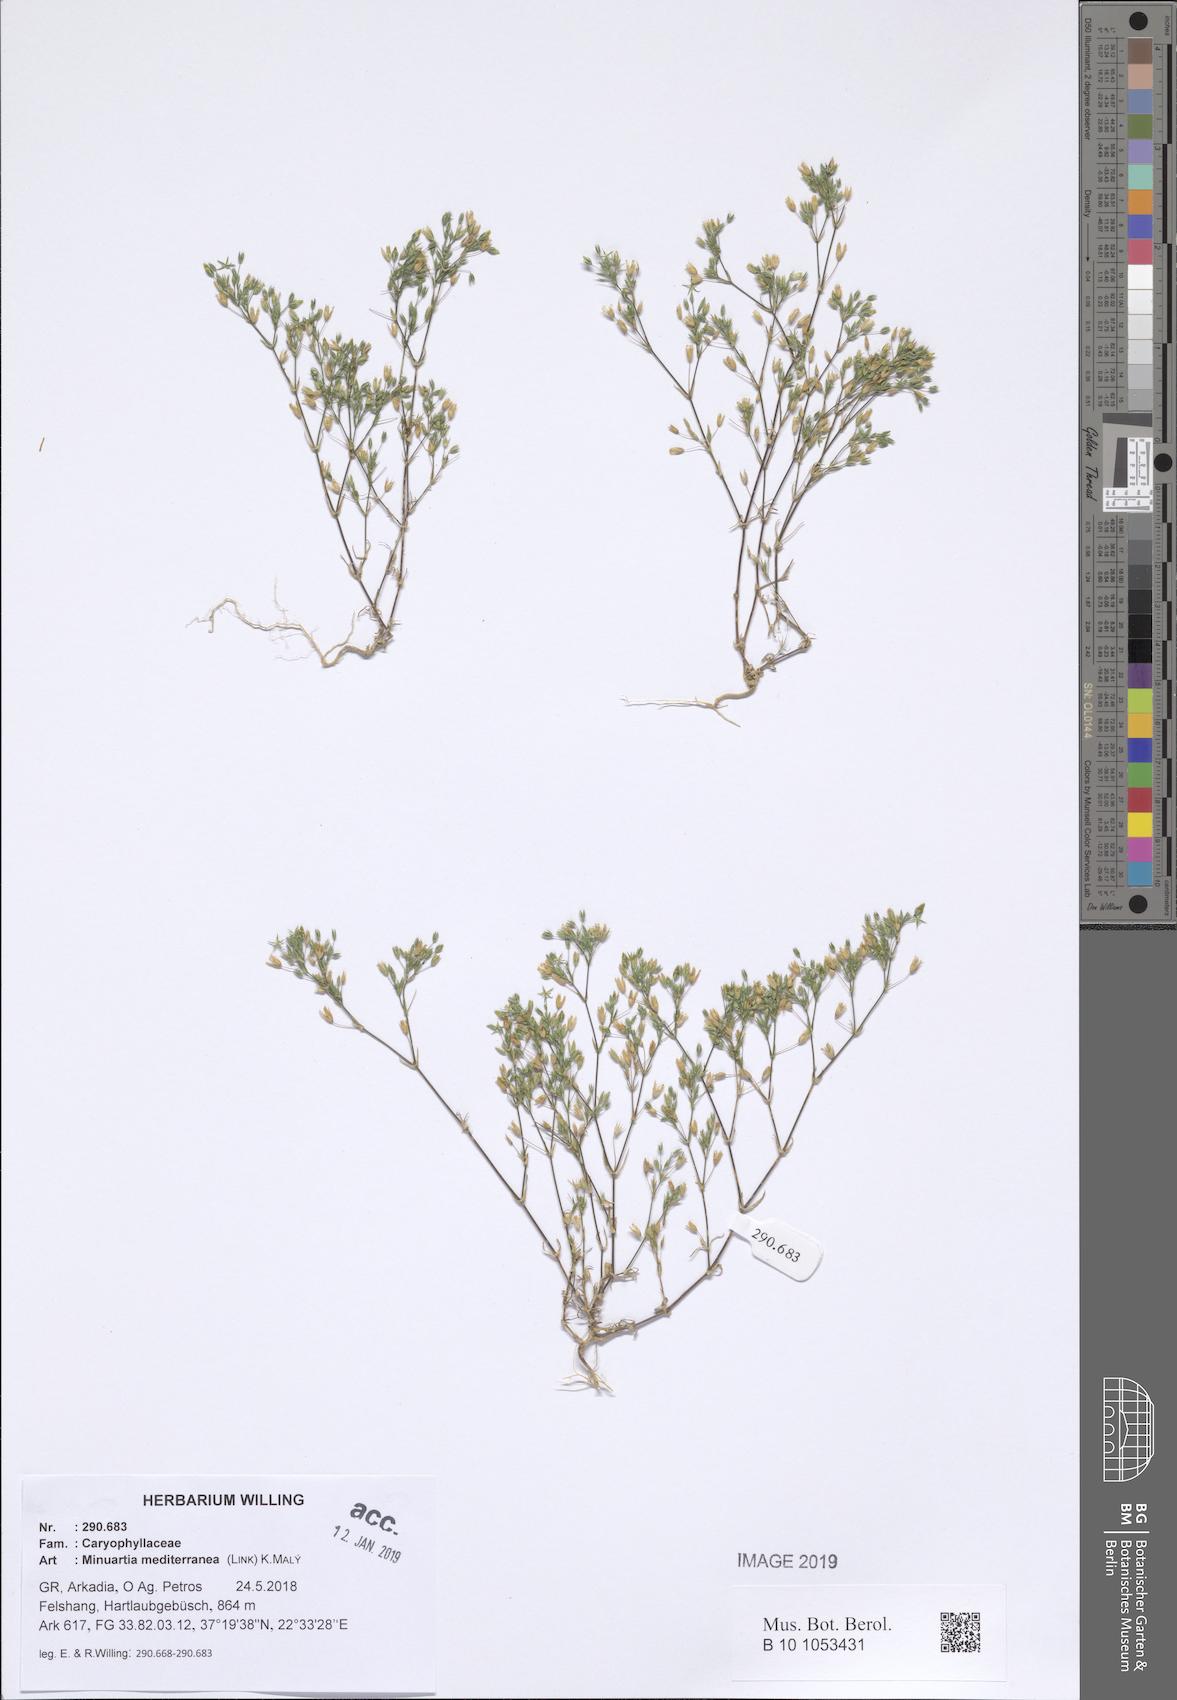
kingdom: Plantae
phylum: Tracheophyta
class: Magnoliopsida
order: Caryophyllales
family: Caryophyllaceae
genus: Sabulina
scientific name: Sabulina mediterranea
